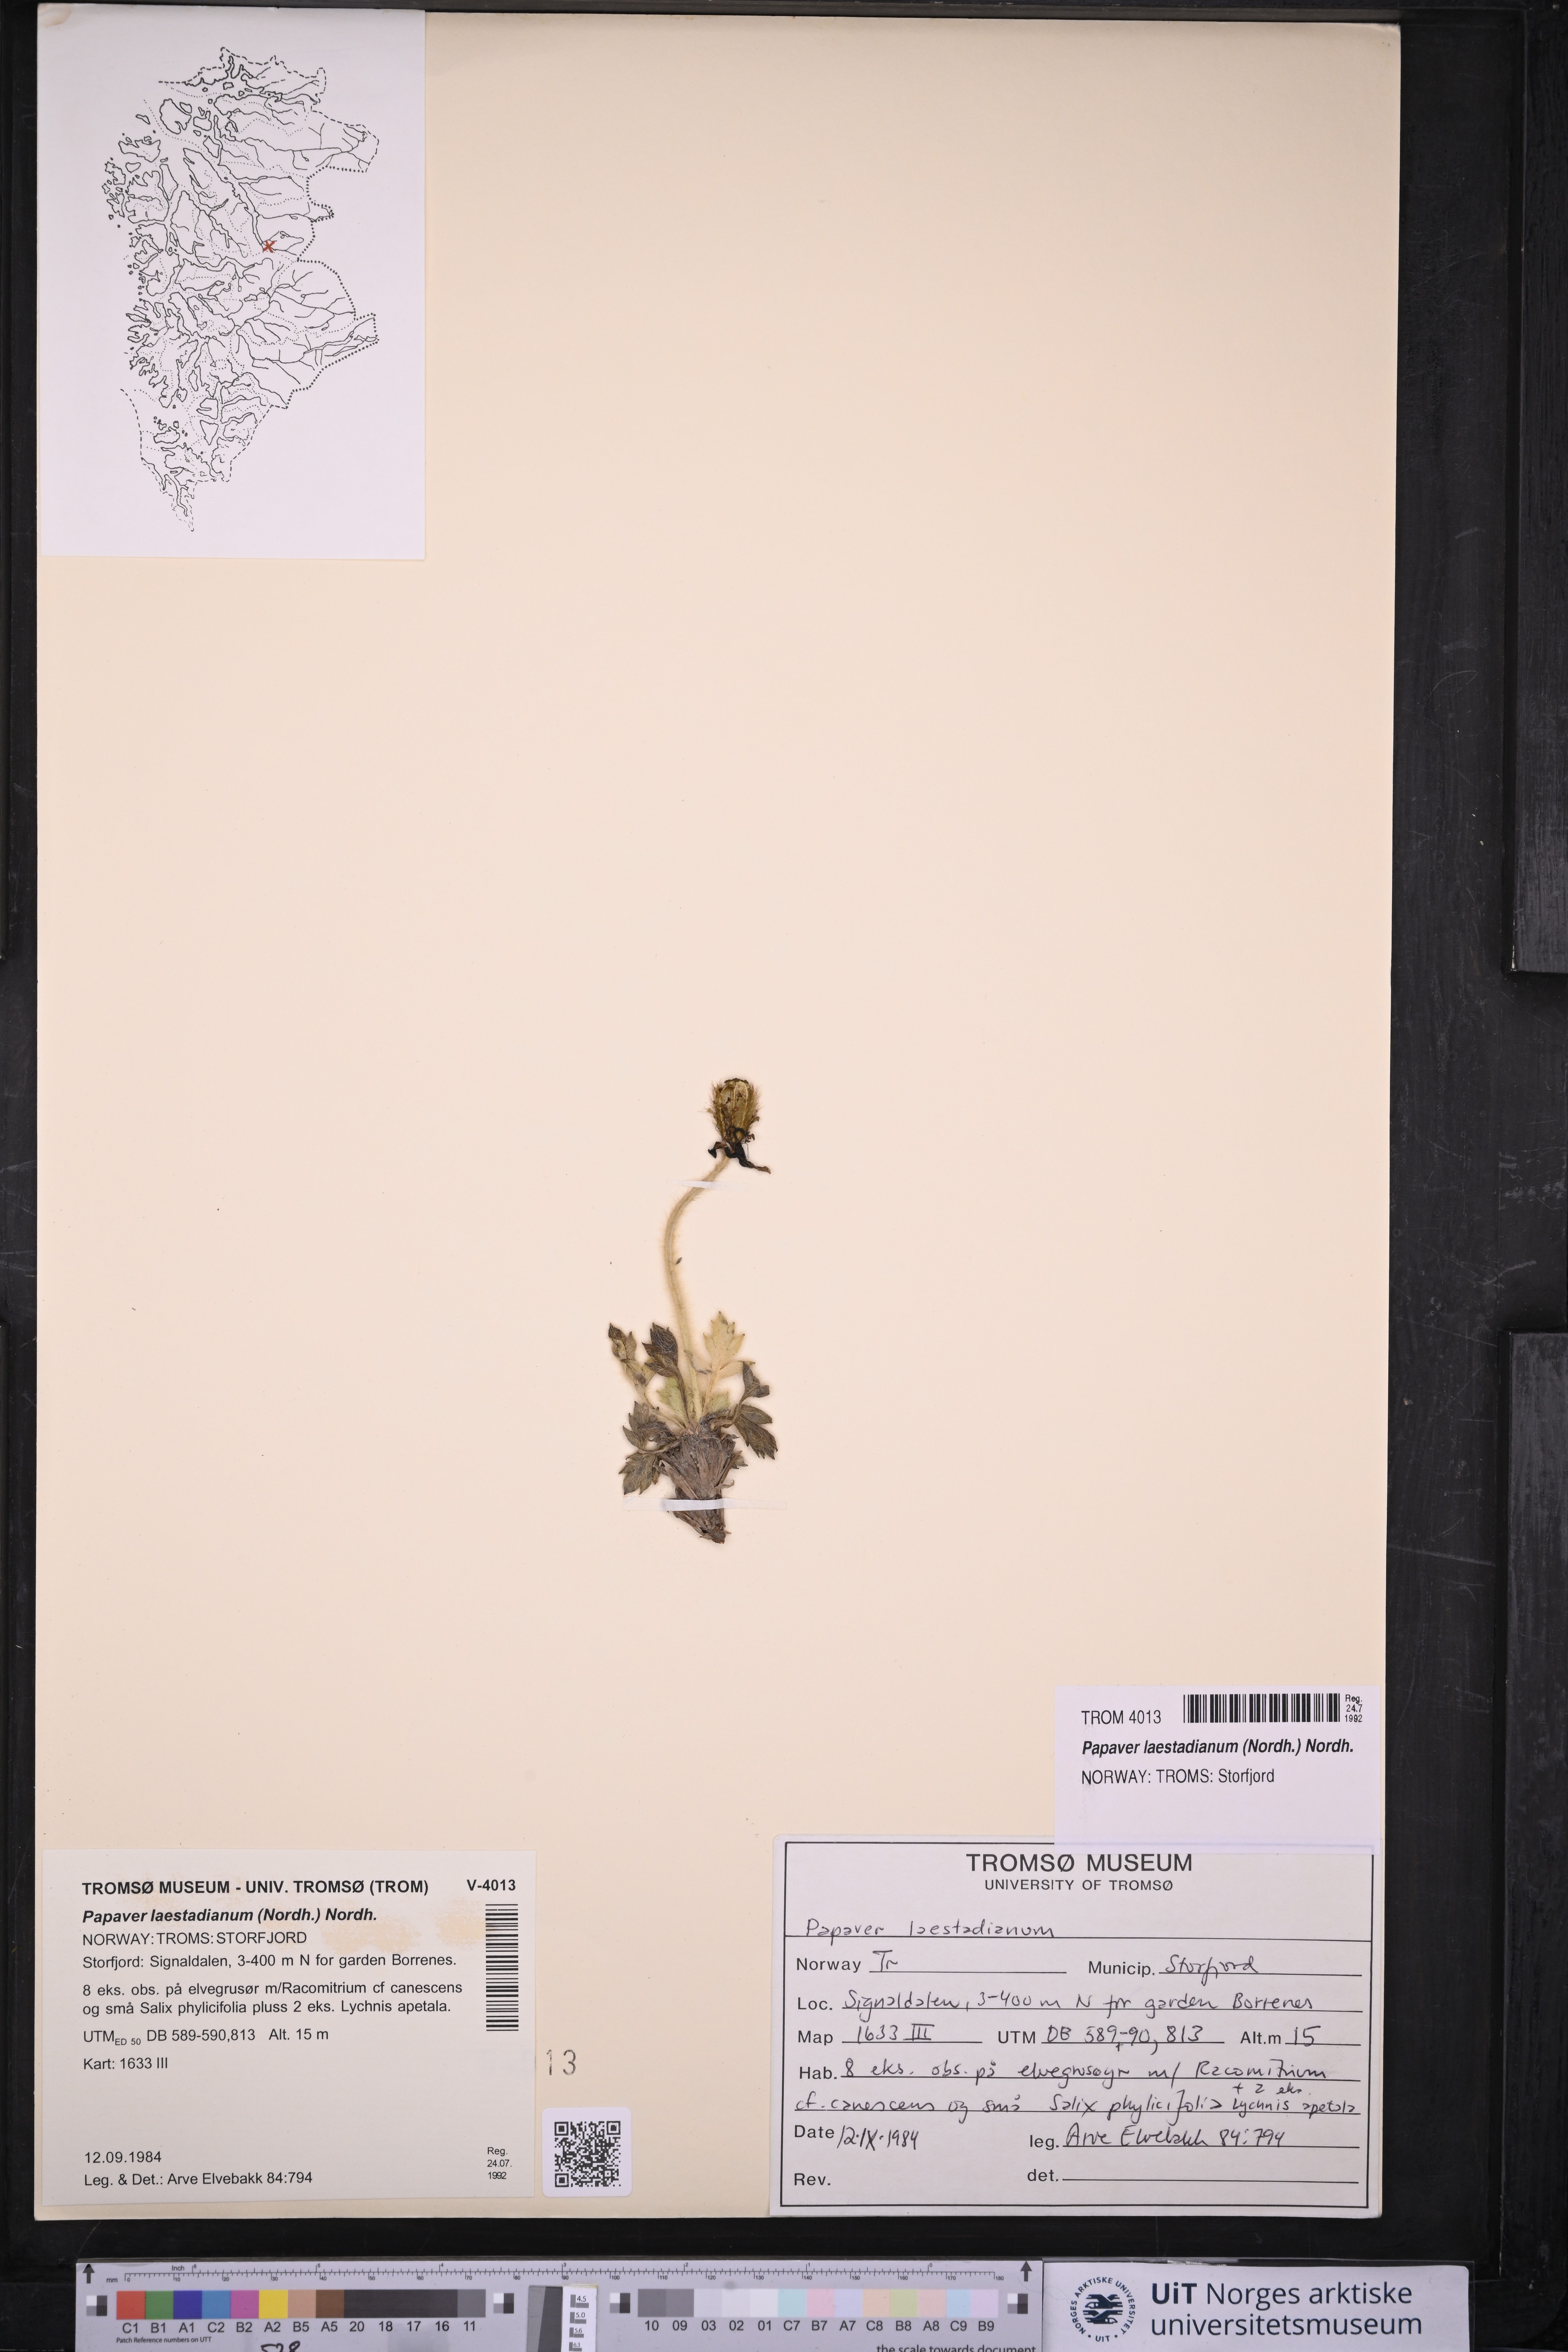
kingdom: Plantae
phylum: Tracheophyta
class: Magnoliopsida
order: Ranunculales
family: Papaveraceae
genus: Papaver
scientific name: Papaver laestadianum
